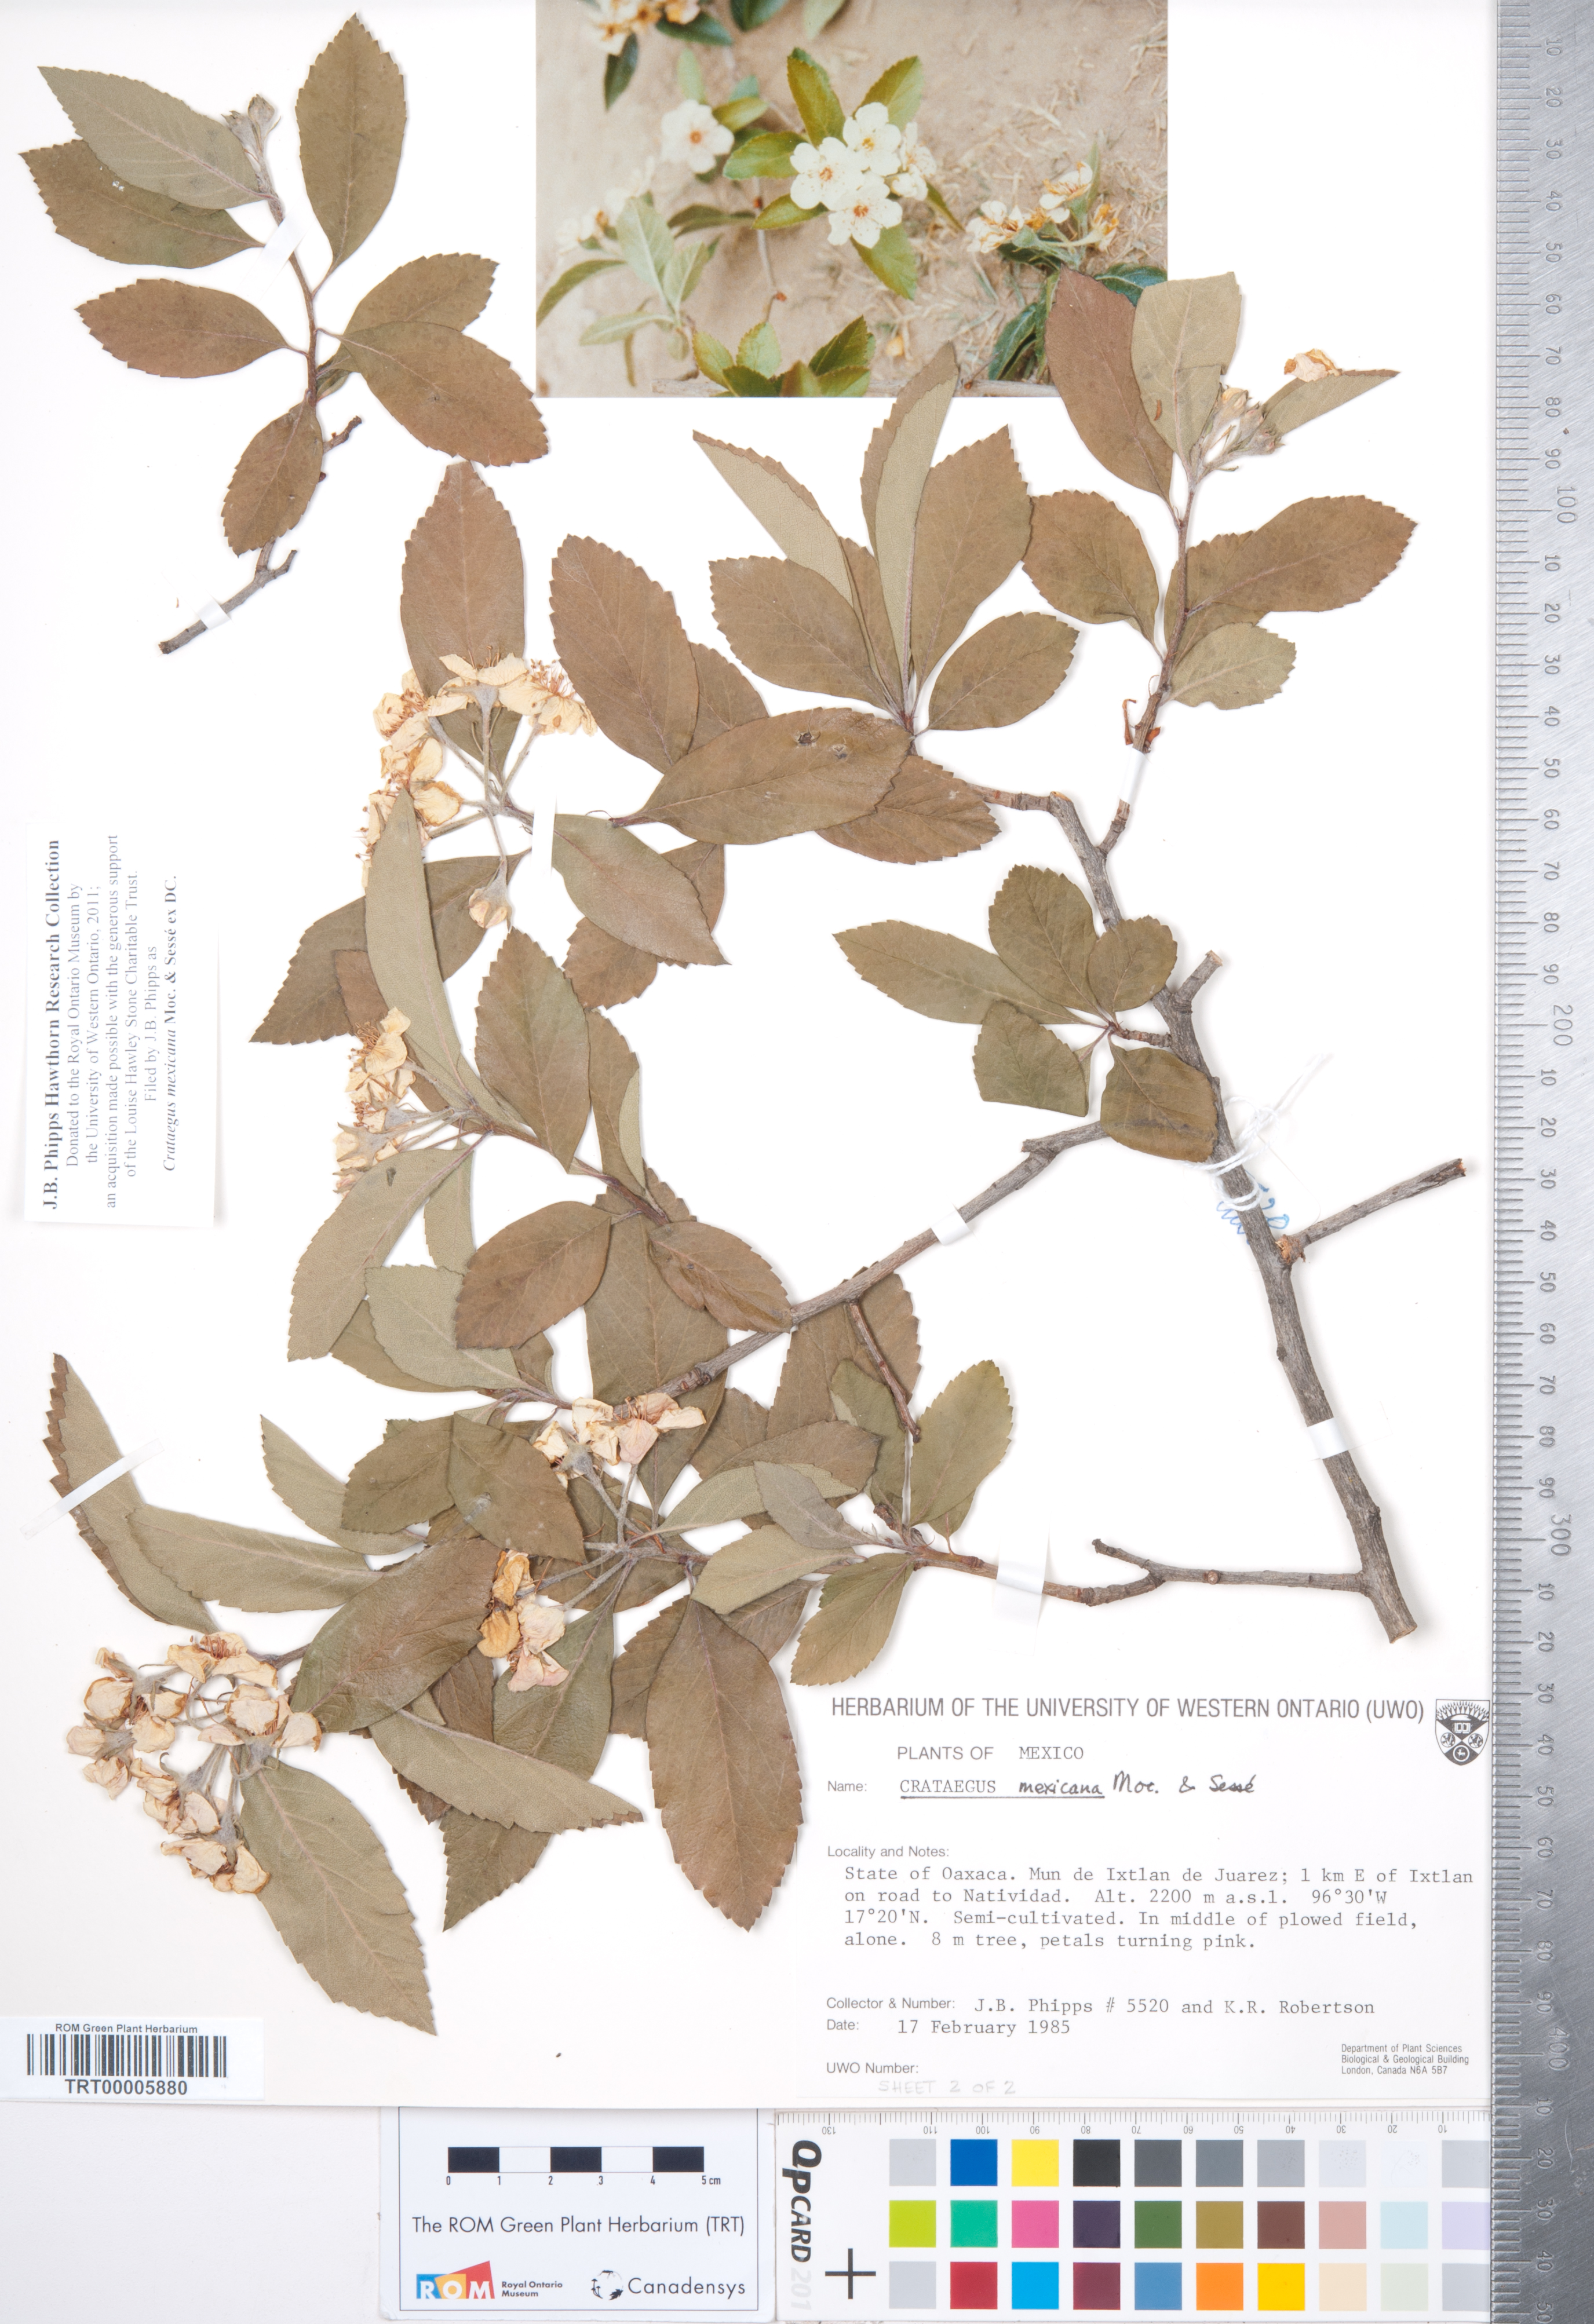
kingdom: Plantae
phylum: Tracheophyta
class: Magnoliopsida
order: Rosales
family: Rosaceae
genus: Crataegus
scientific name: Crataegus mexicana
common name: Mexican hawthorn
